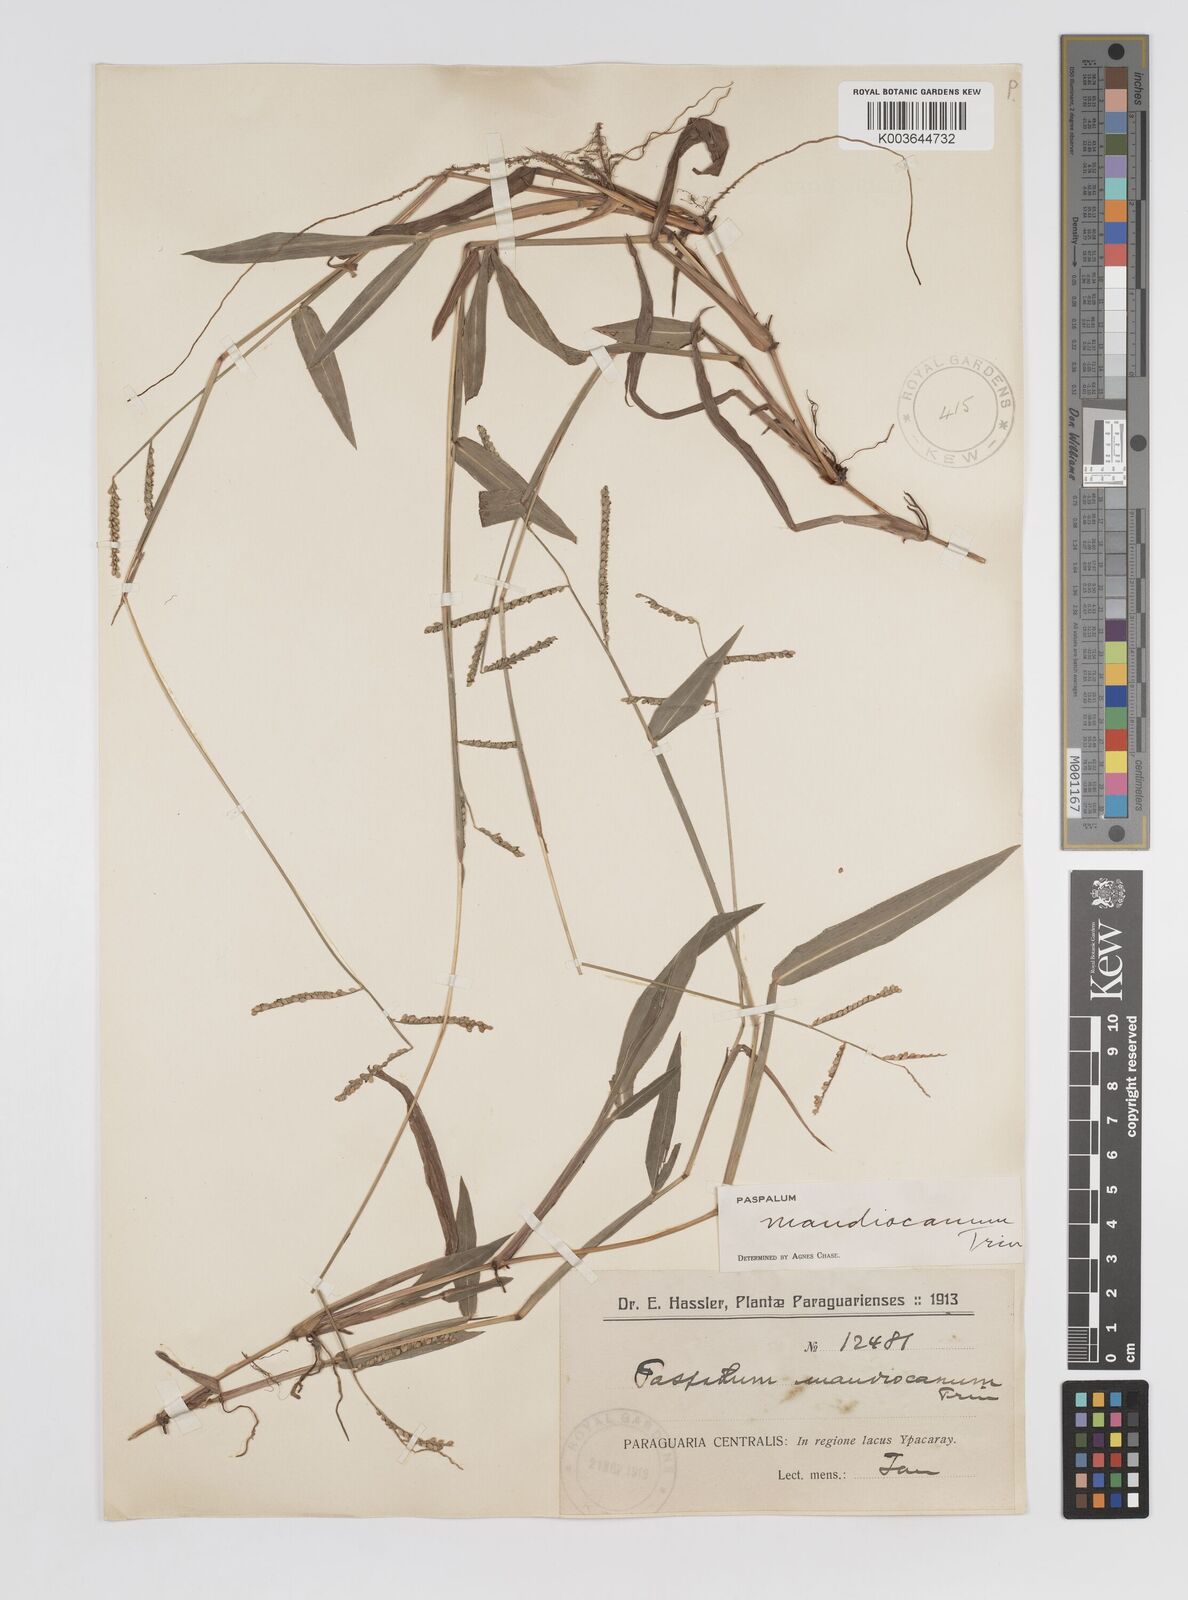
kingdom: Plantae
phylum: Tracheophyta
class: Liliopsida
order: Poales
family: Poaceae
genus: Paspalum
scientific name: Paspalum mandiocanum
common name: Paspalum
